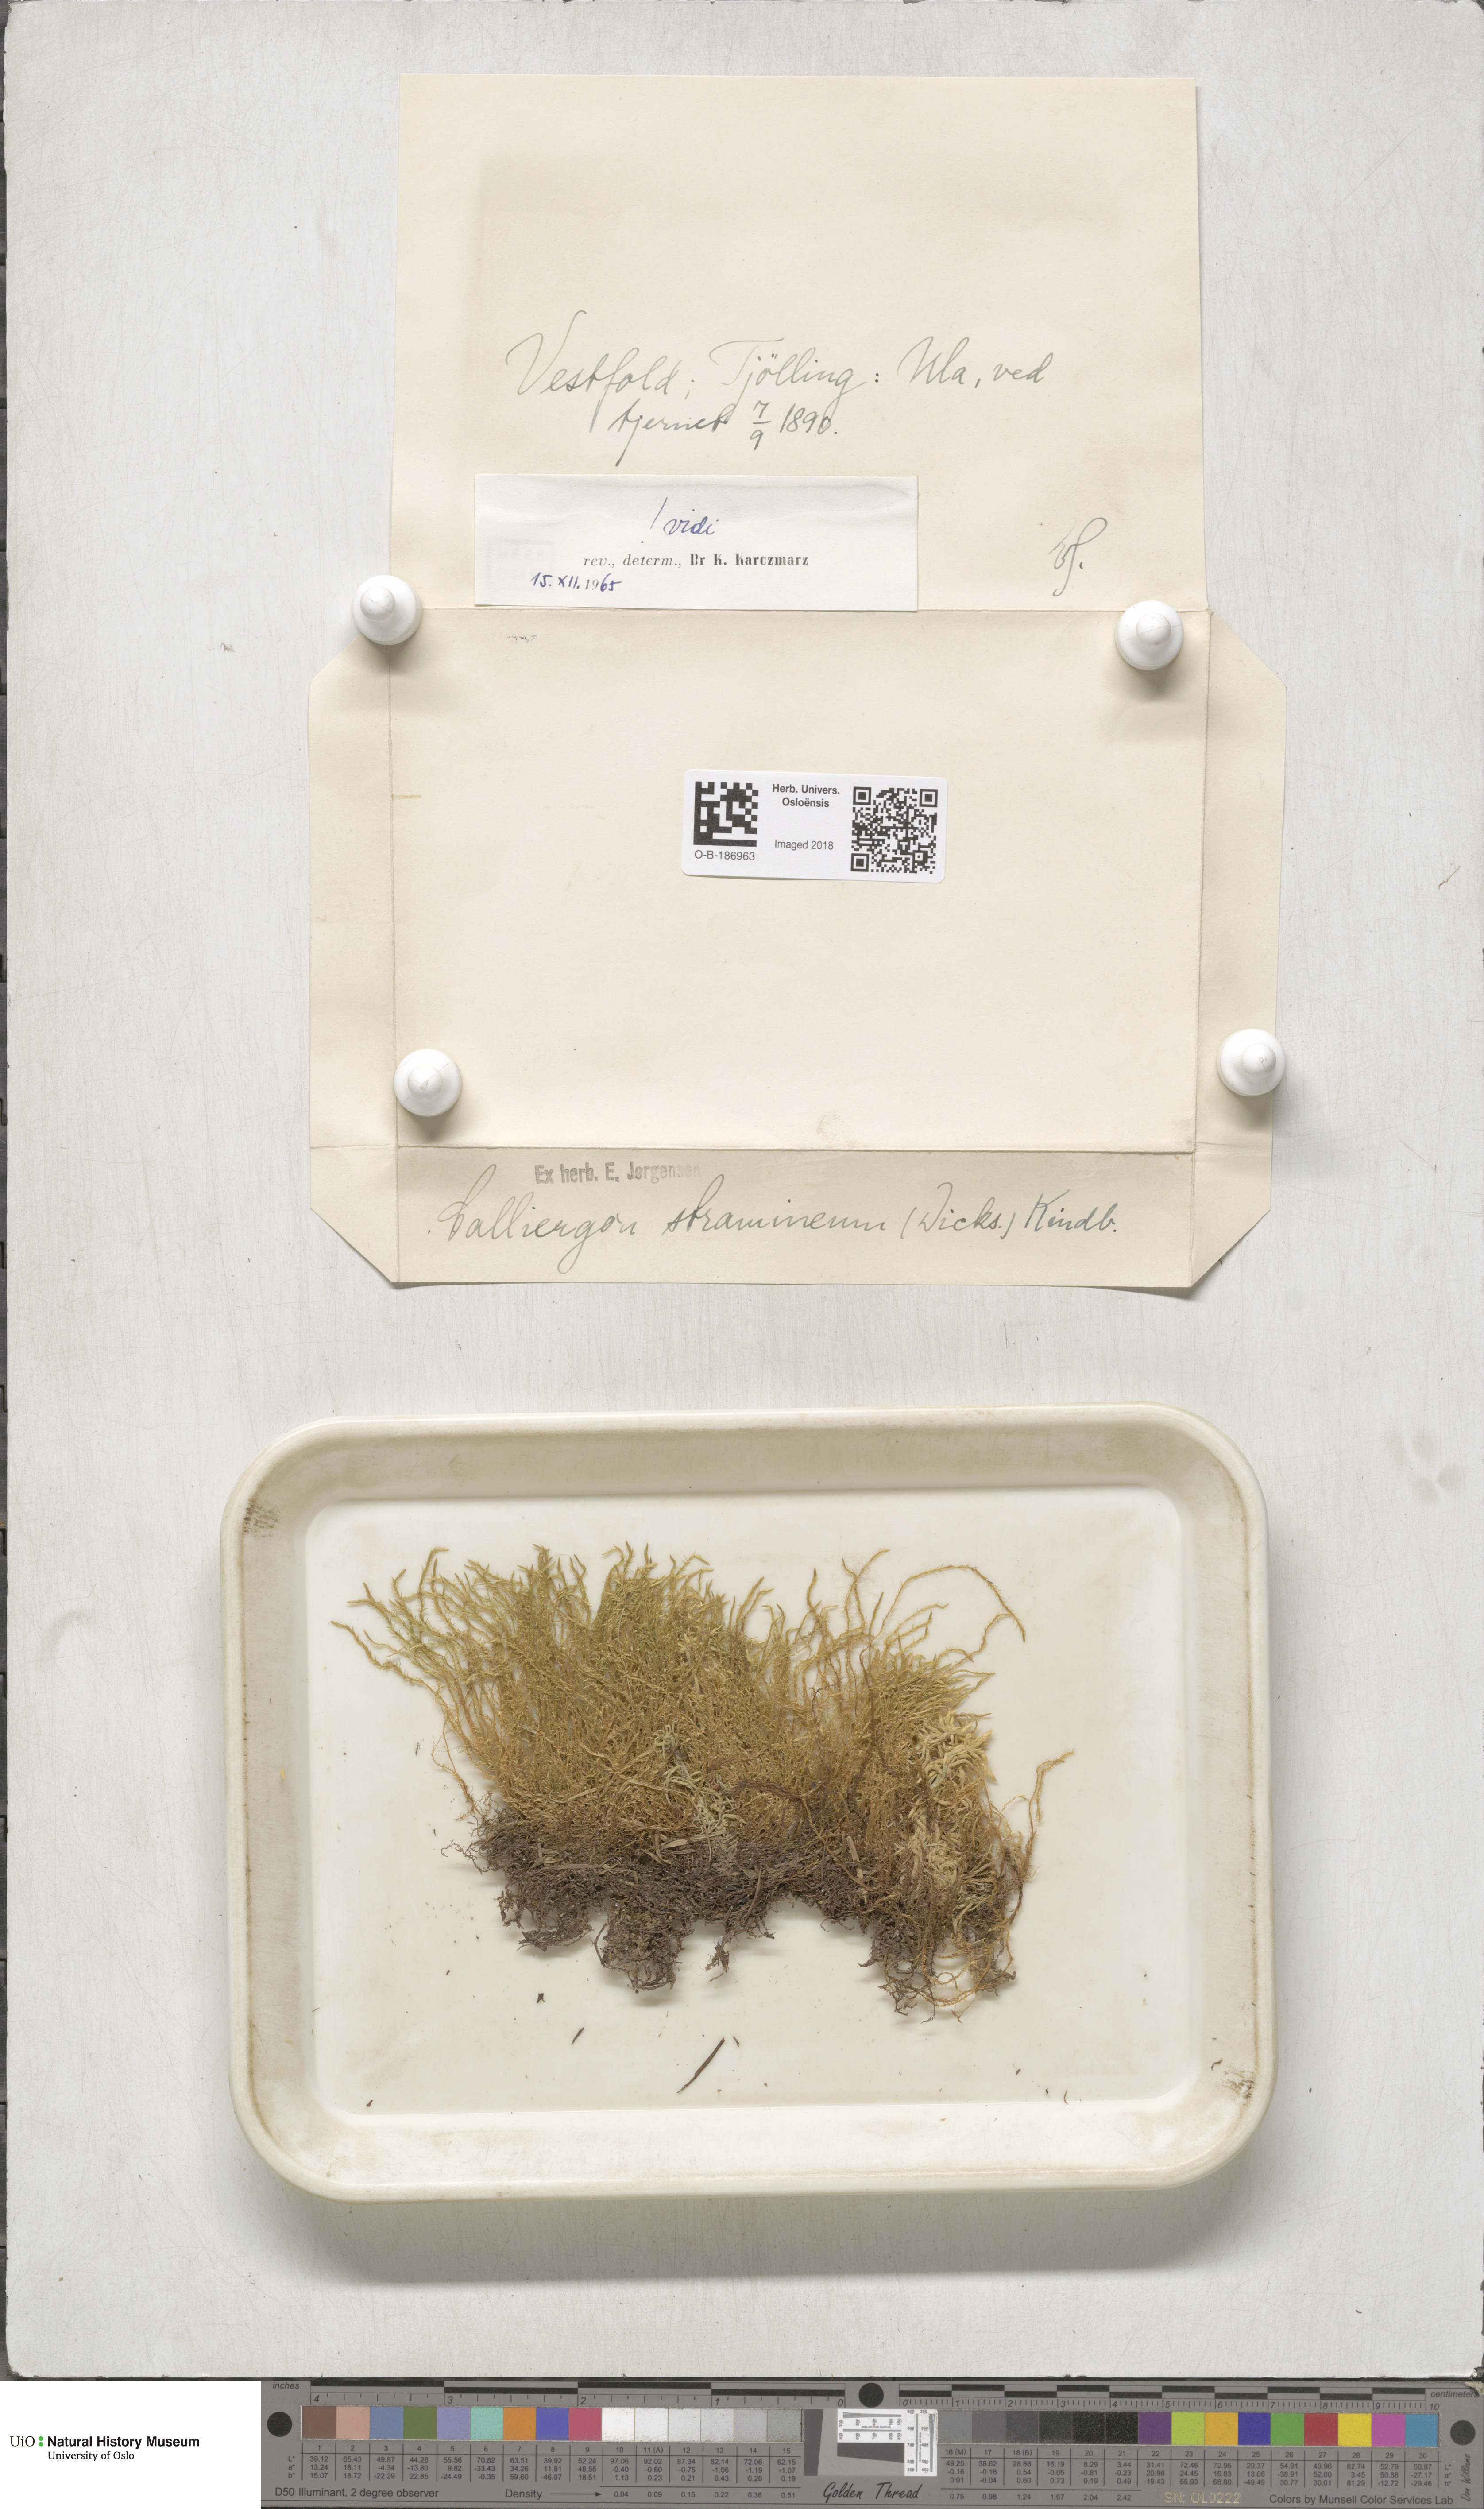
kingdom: Plantae
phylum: Bryophyta
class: Bryopsida
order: Hypnales
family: Calliergonaceae
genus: Straminergon
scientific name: Straminergon stramineum
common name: Straw moss
